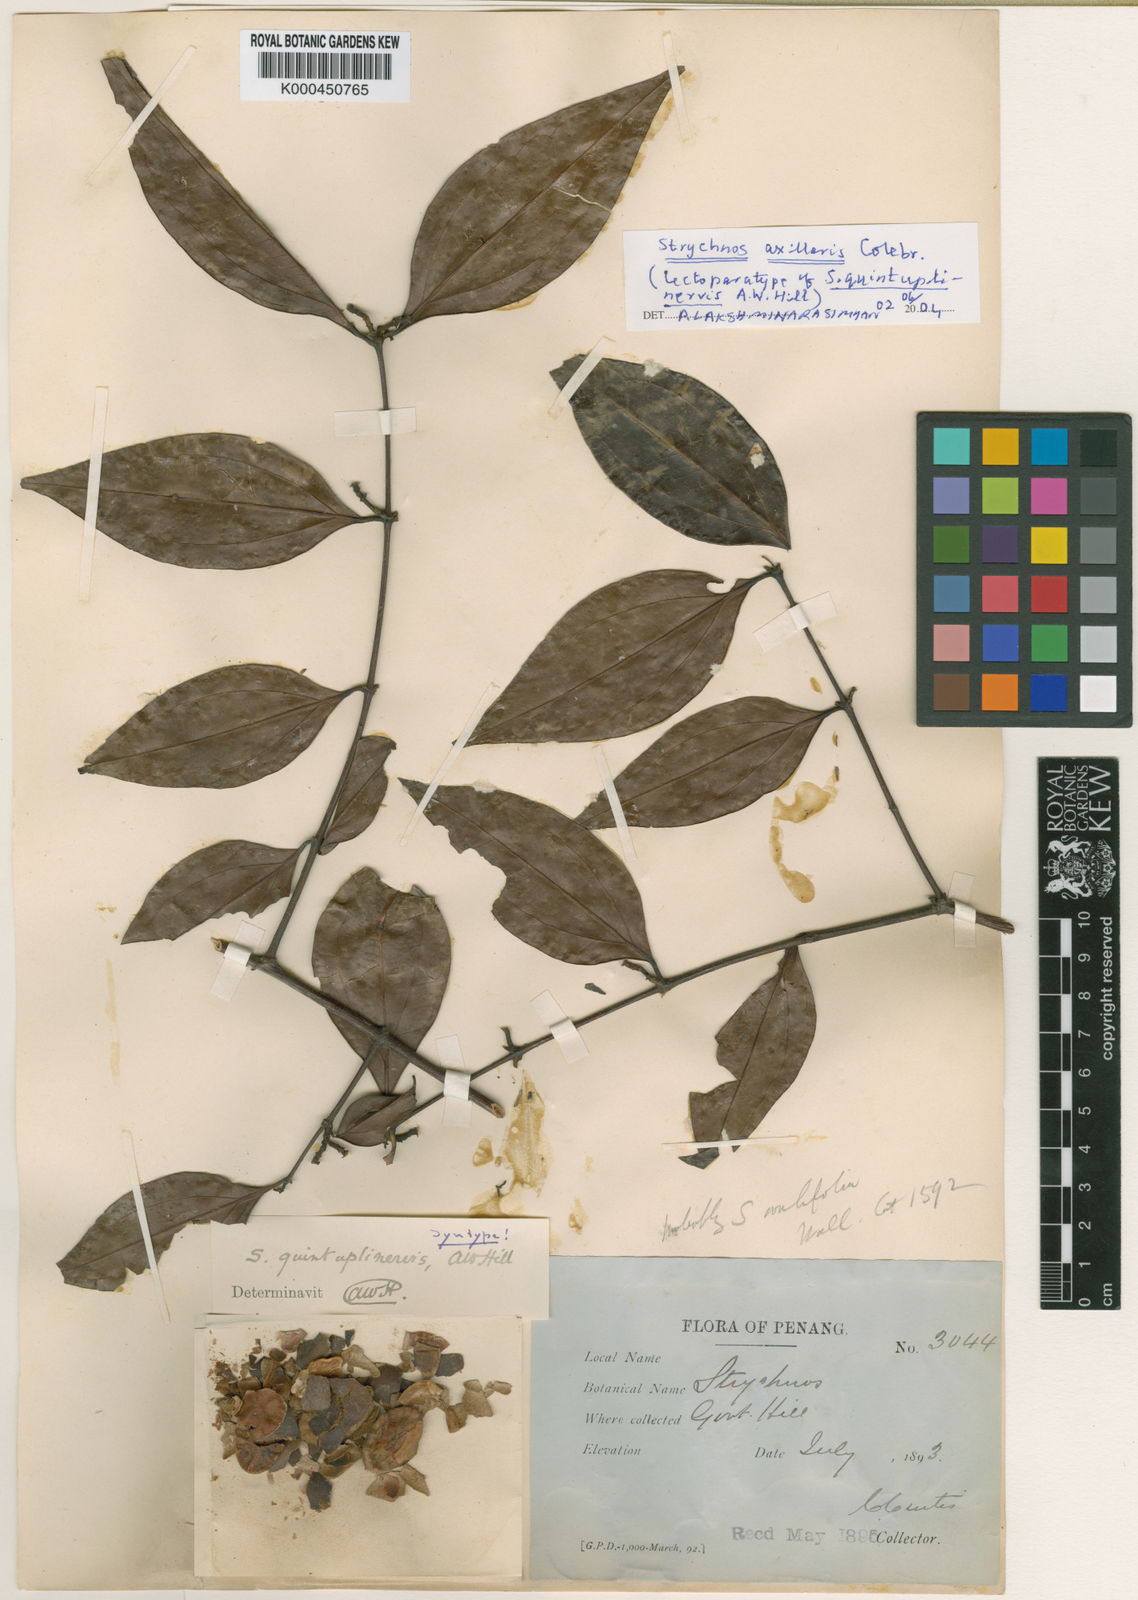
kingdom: Plantae
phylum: Tracheophyta
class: Magnoliopsida
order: Gentianales
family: Loganiaceae
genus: Strychnos
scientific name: Strychnos axillaris
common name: Strychninebush
